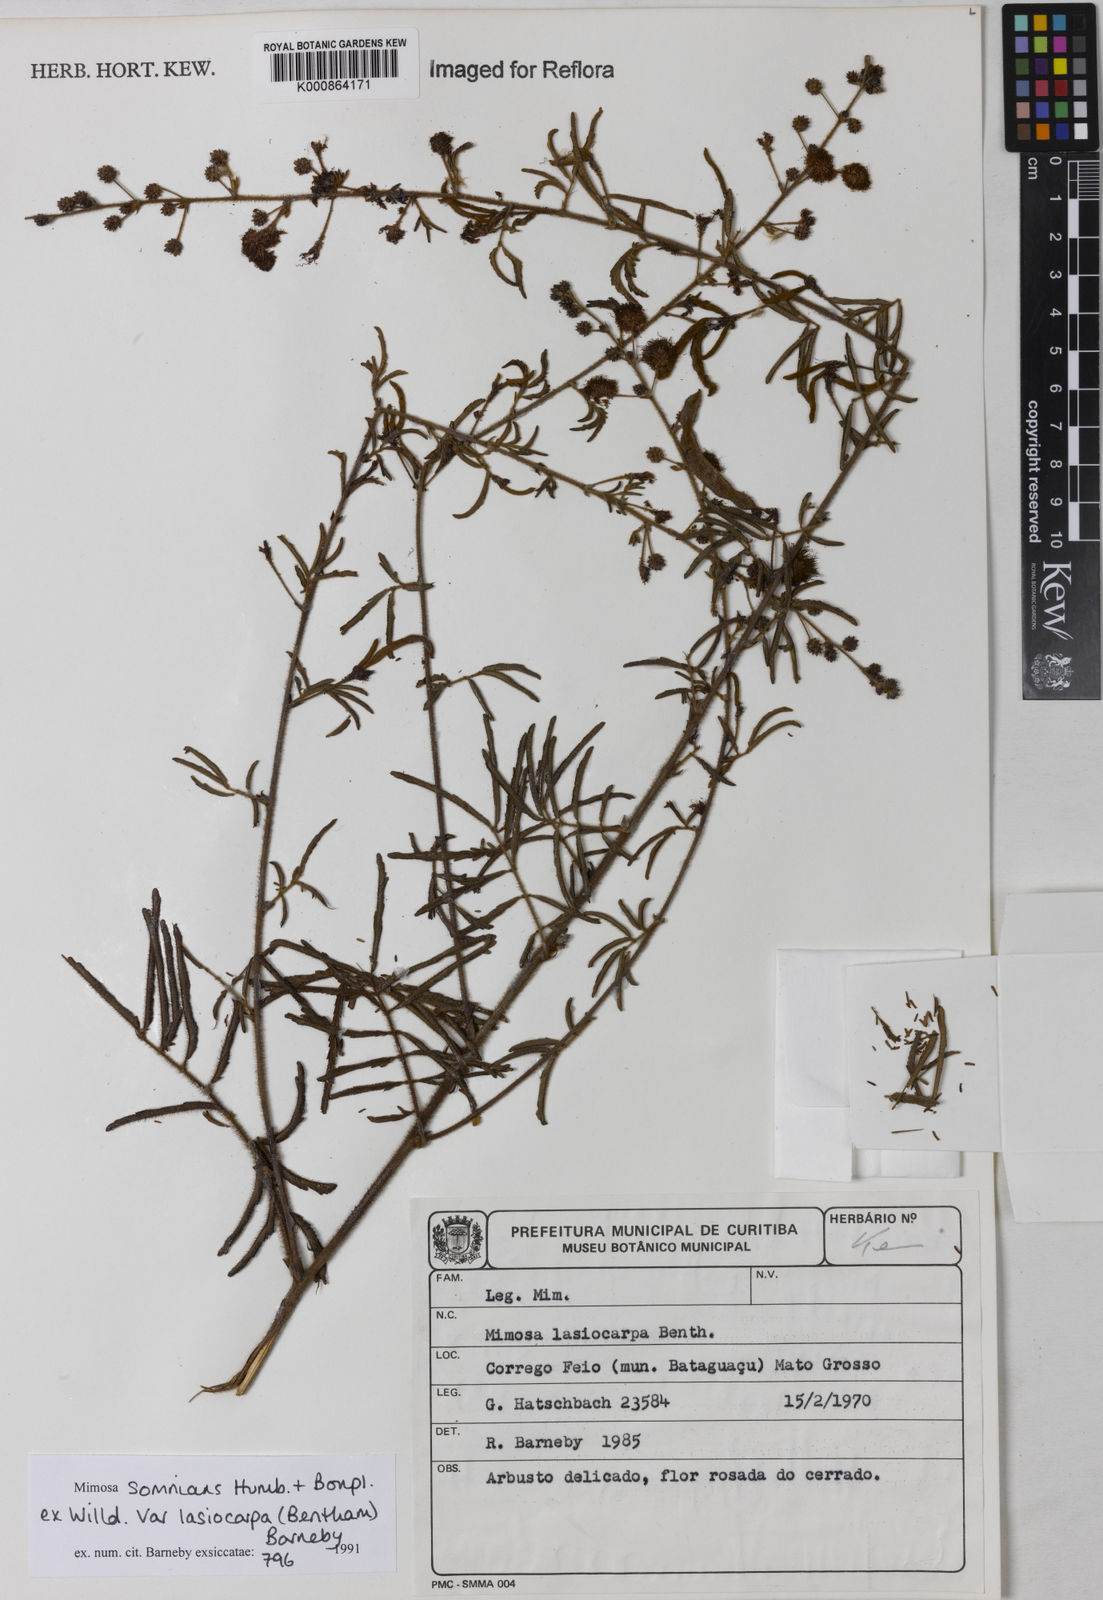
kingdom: Plantae
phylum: Tracheophyta
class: Magnoliopsida
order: Fabales
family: Fabaceae
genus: Mimosa
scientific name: Mimosa somnians
